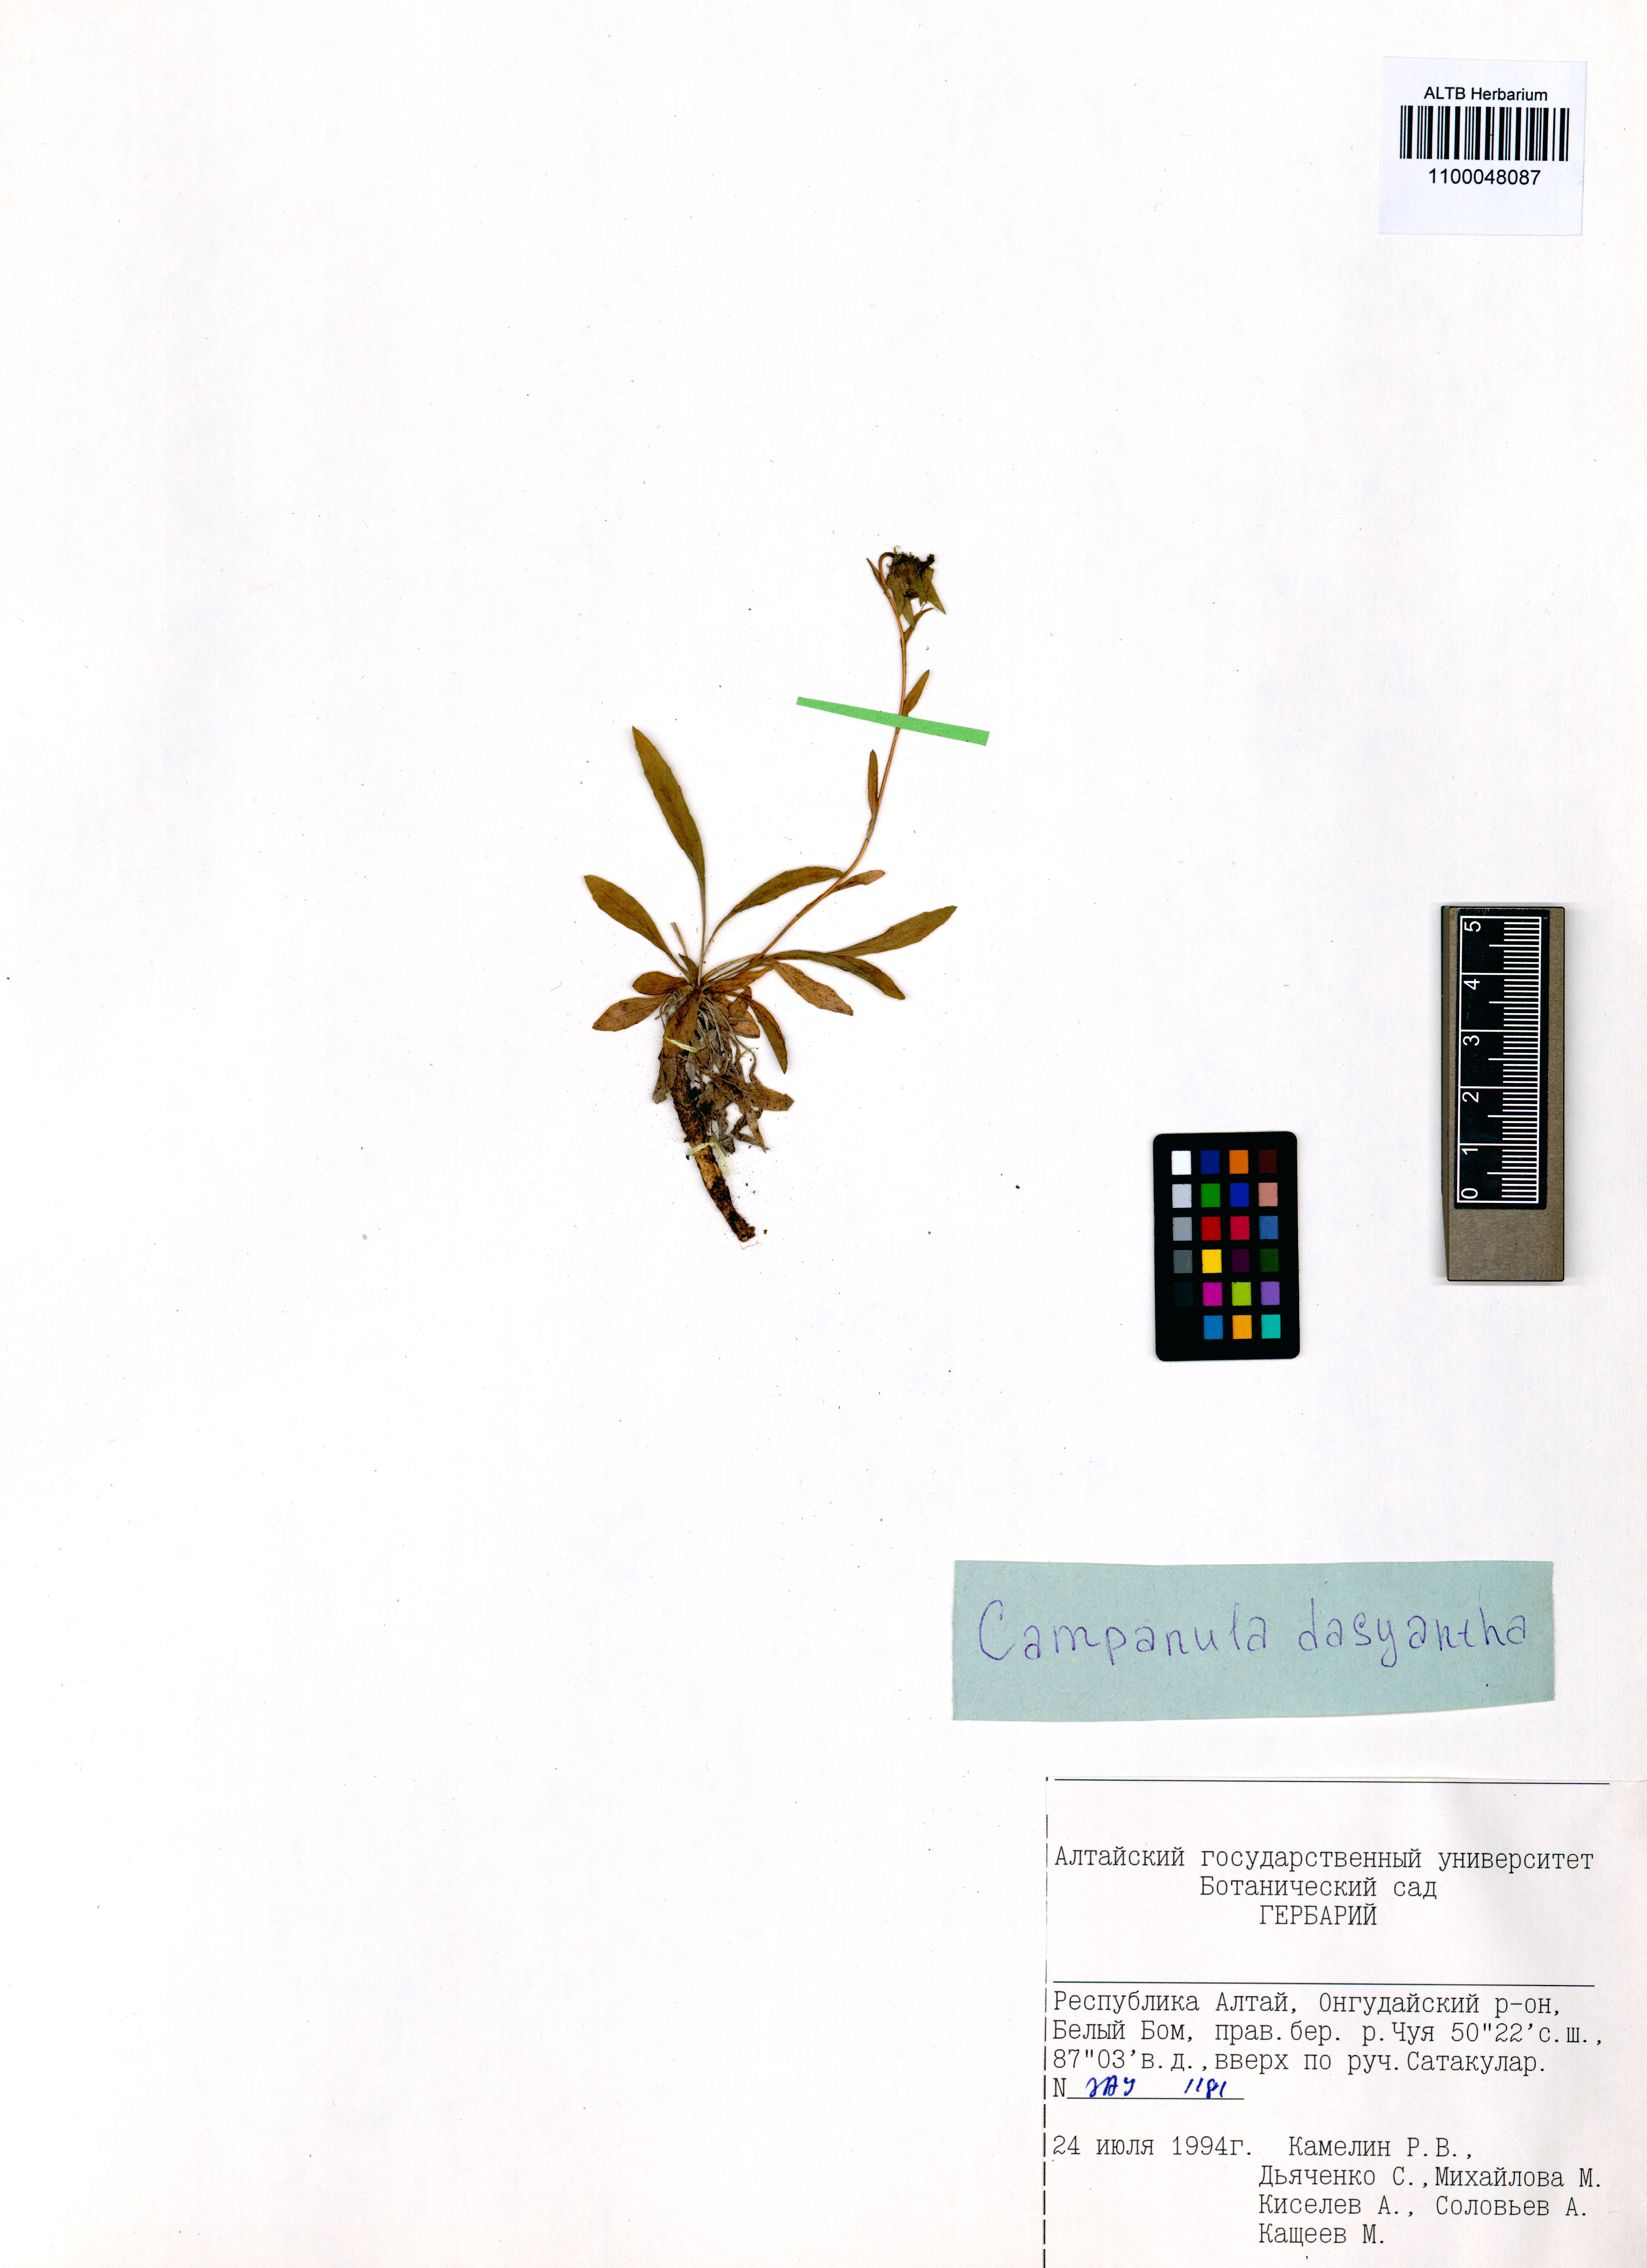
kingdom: Plantae
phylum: Tracheophyta
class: Magnoliopsida
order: Asterales
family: Campanulaceae
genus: Campanula
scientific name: Campanula dasyantha
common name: Hairyflower bellflower
